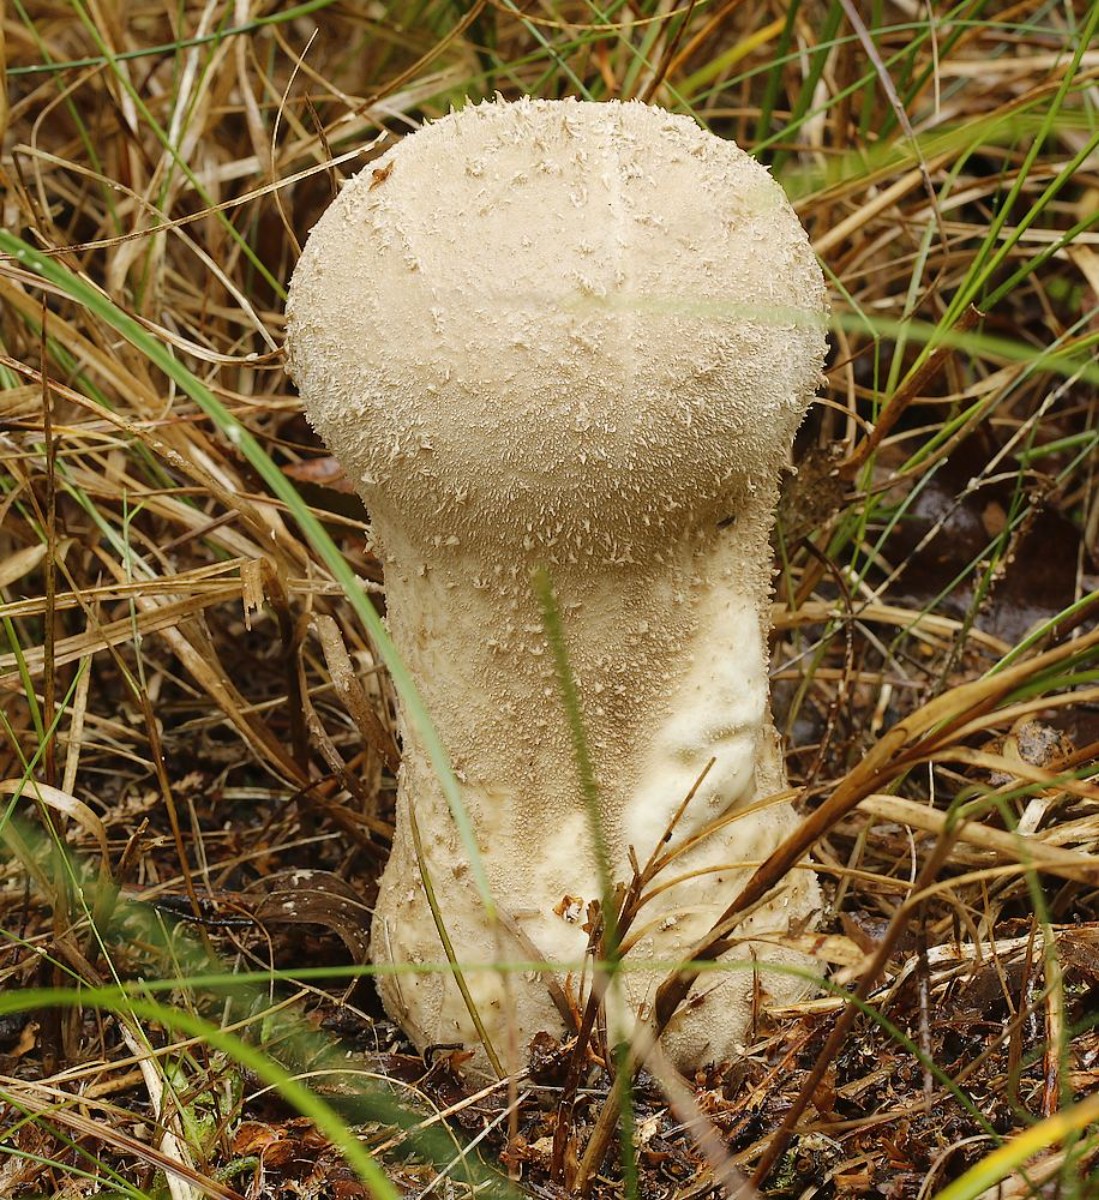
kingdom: Fungi
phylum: Basidiomycota
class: Agaricomycetes
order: Agaricales
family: Lycoperdaceae
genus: Lycoperdon
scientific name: Lycoperdon excipuliforme
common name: højstokket støvbold
